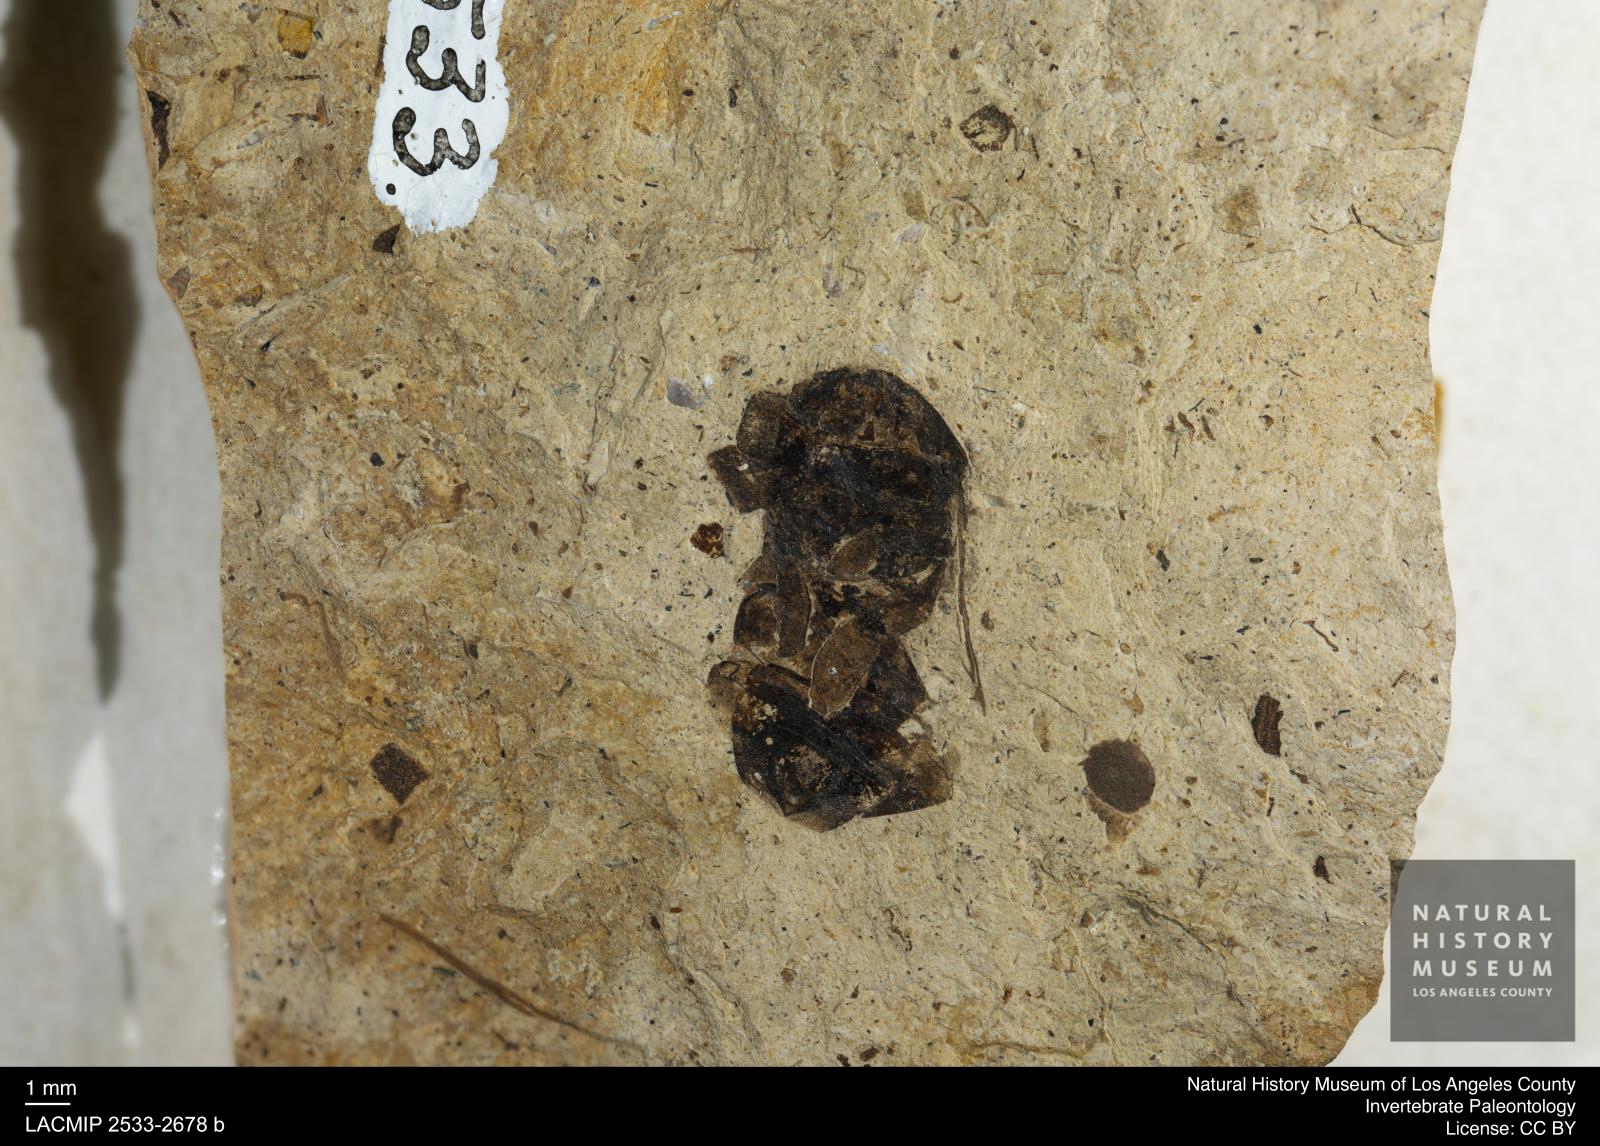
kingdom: Animalia
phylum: Arthropoda
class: Insecta
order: Hymenoptera
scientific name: Hymenoptera
